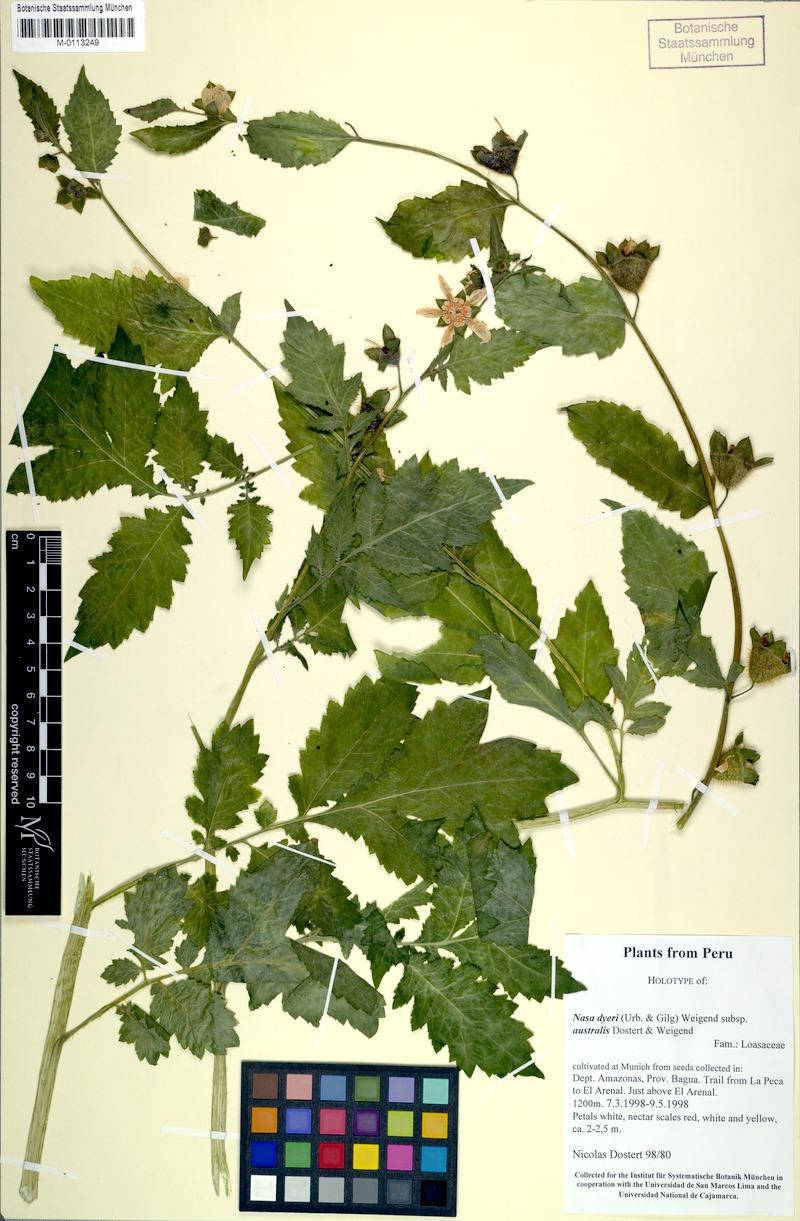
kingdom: Plantae
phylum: Tracheophyta
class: Magnoliopsida
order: Cornales
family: Loasaceae
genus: Nasa
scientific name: Nasa dyeri
